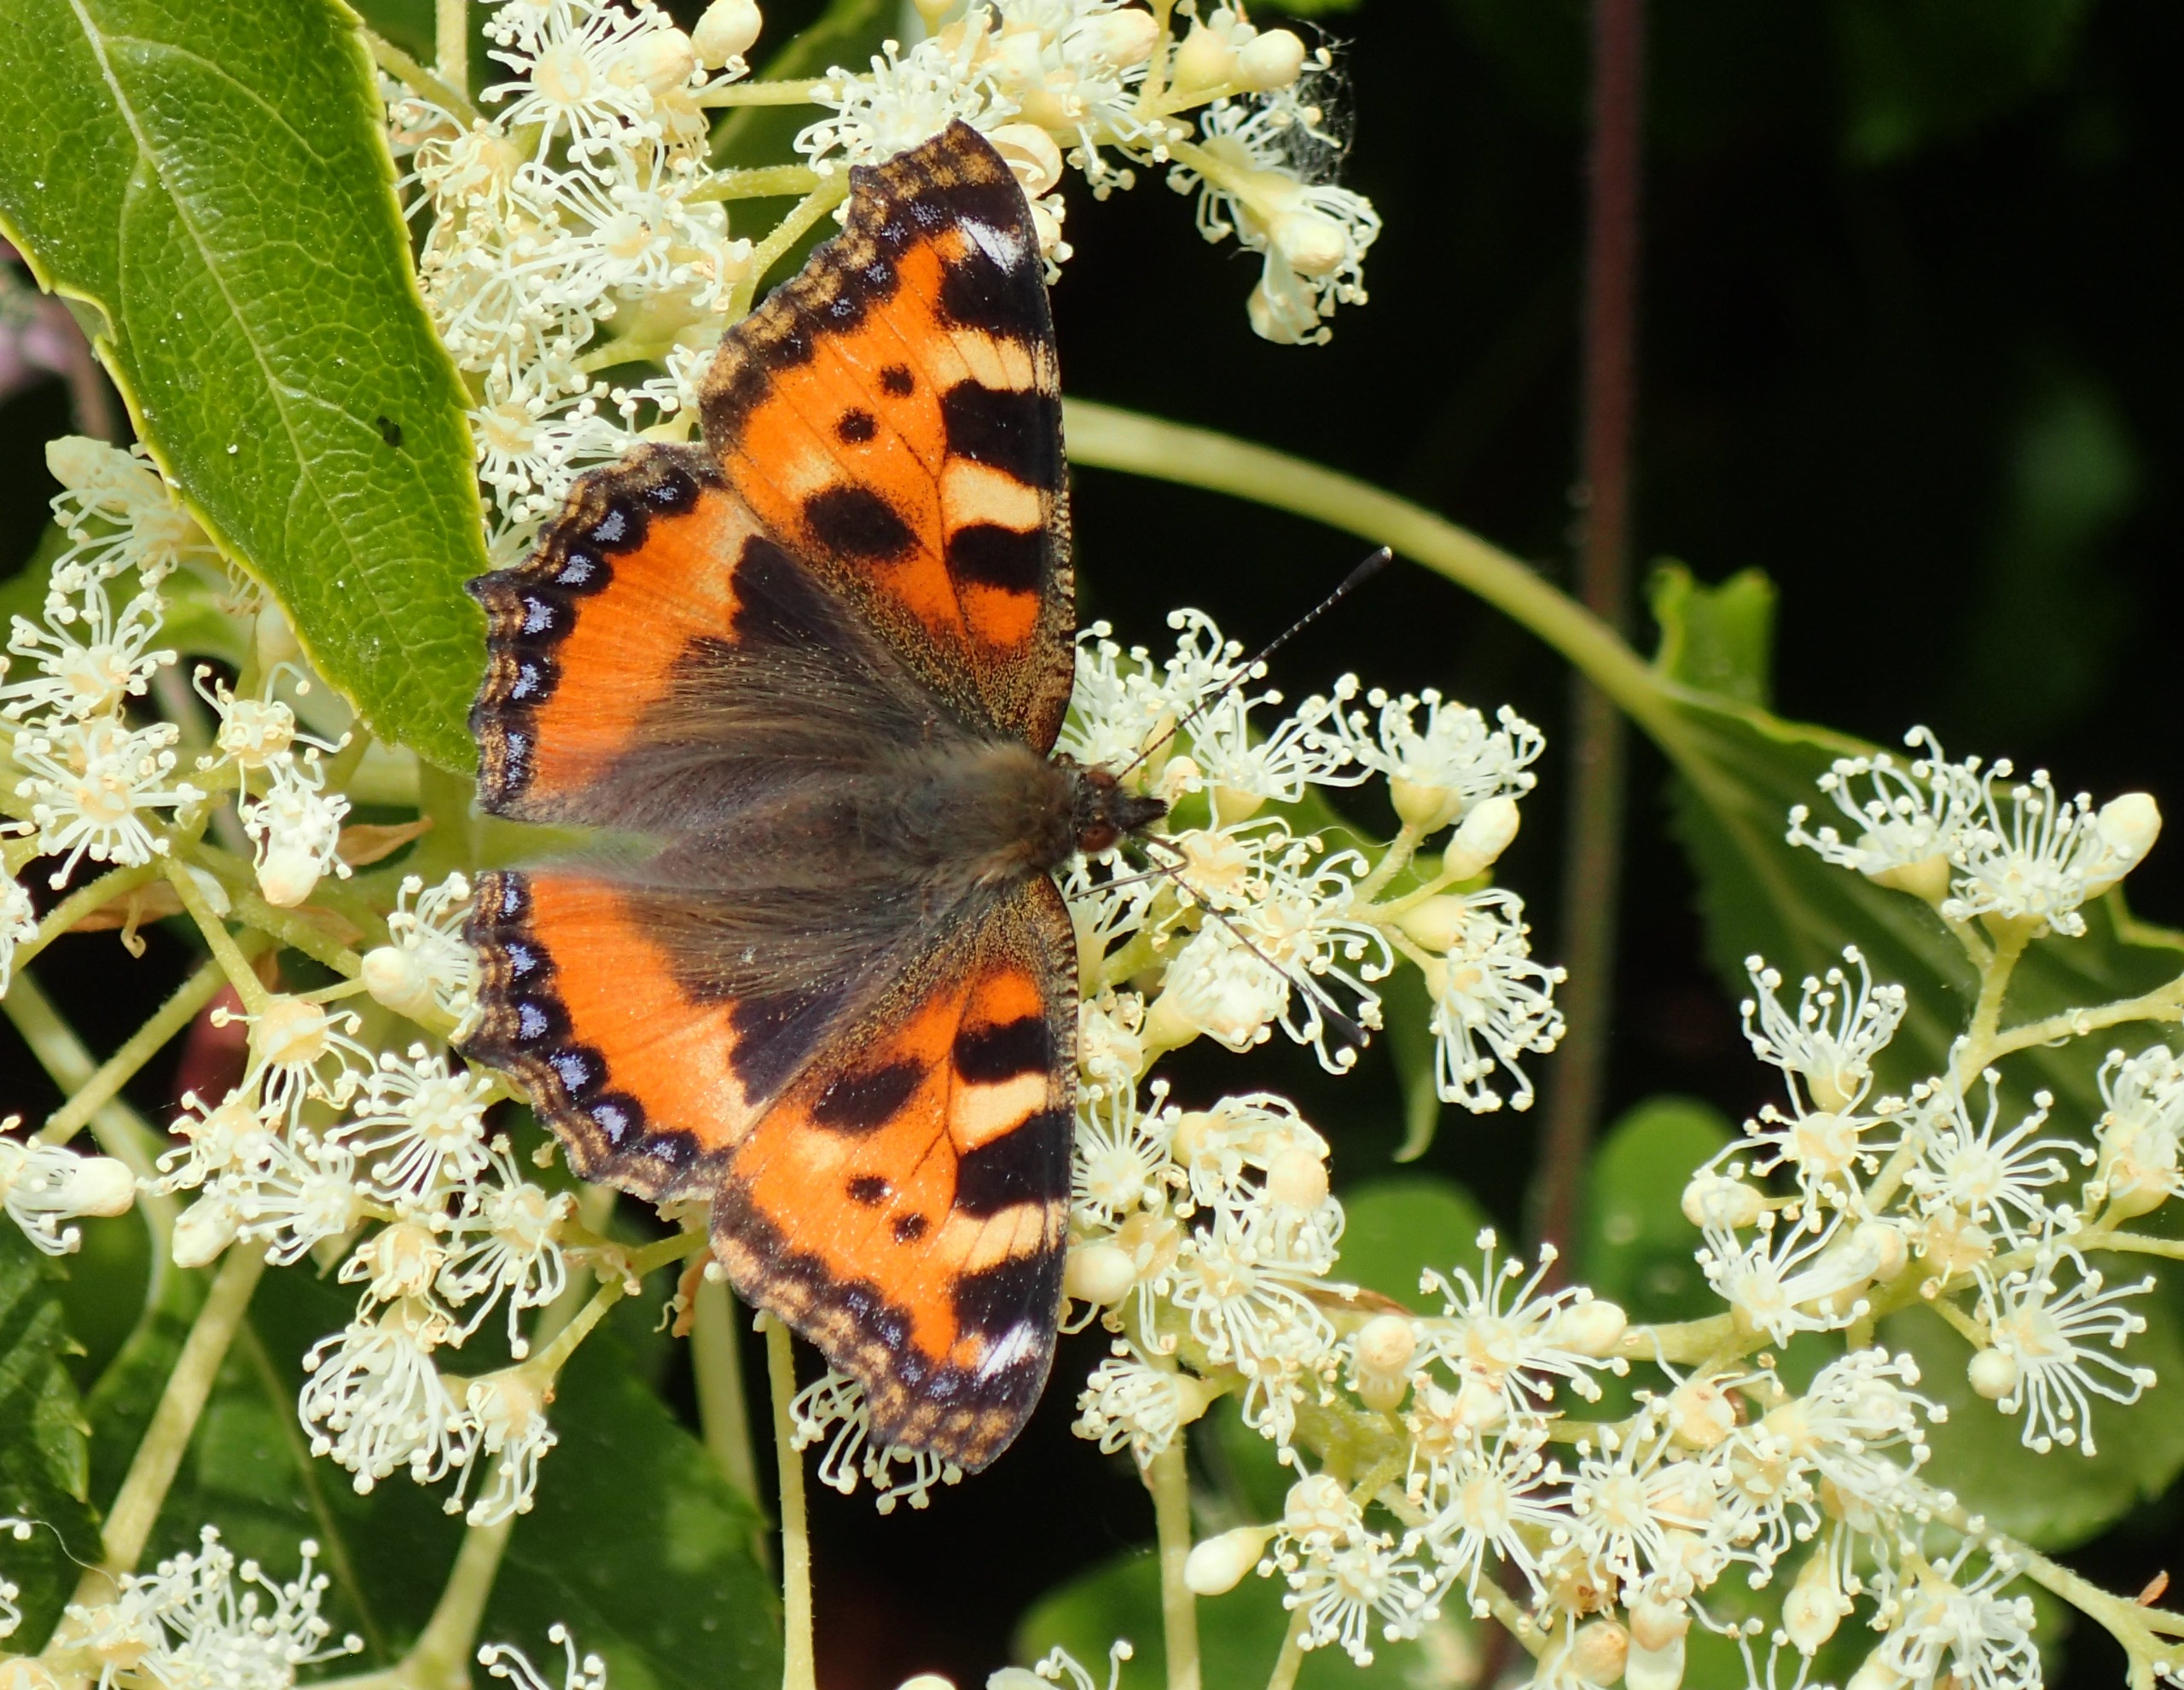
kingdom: Animalia
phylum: Arthropoda
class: Insecta
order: Lepidoptera
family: Nymphalidae
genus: Aglais
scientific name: Aglais urticae
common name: Nældens takvinge
